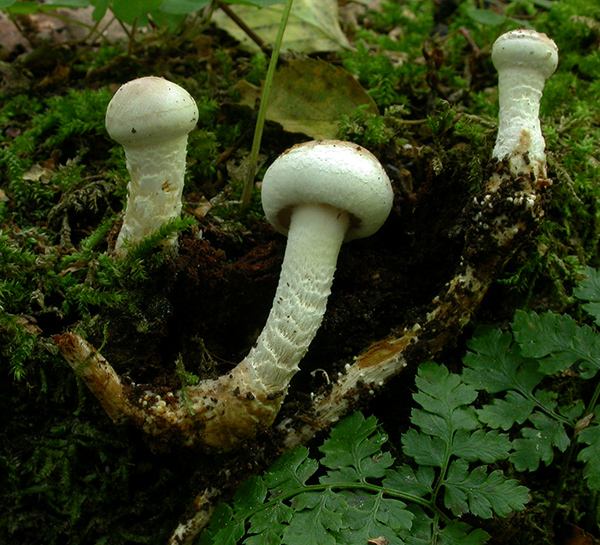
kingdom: Fungi
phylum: Basidiomycota
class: Agaricomycetes
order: Agaricales
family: Strophariaceae
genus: Hypholoma
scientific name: Hypholoma radicosum
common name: pælerods-svovlhat
